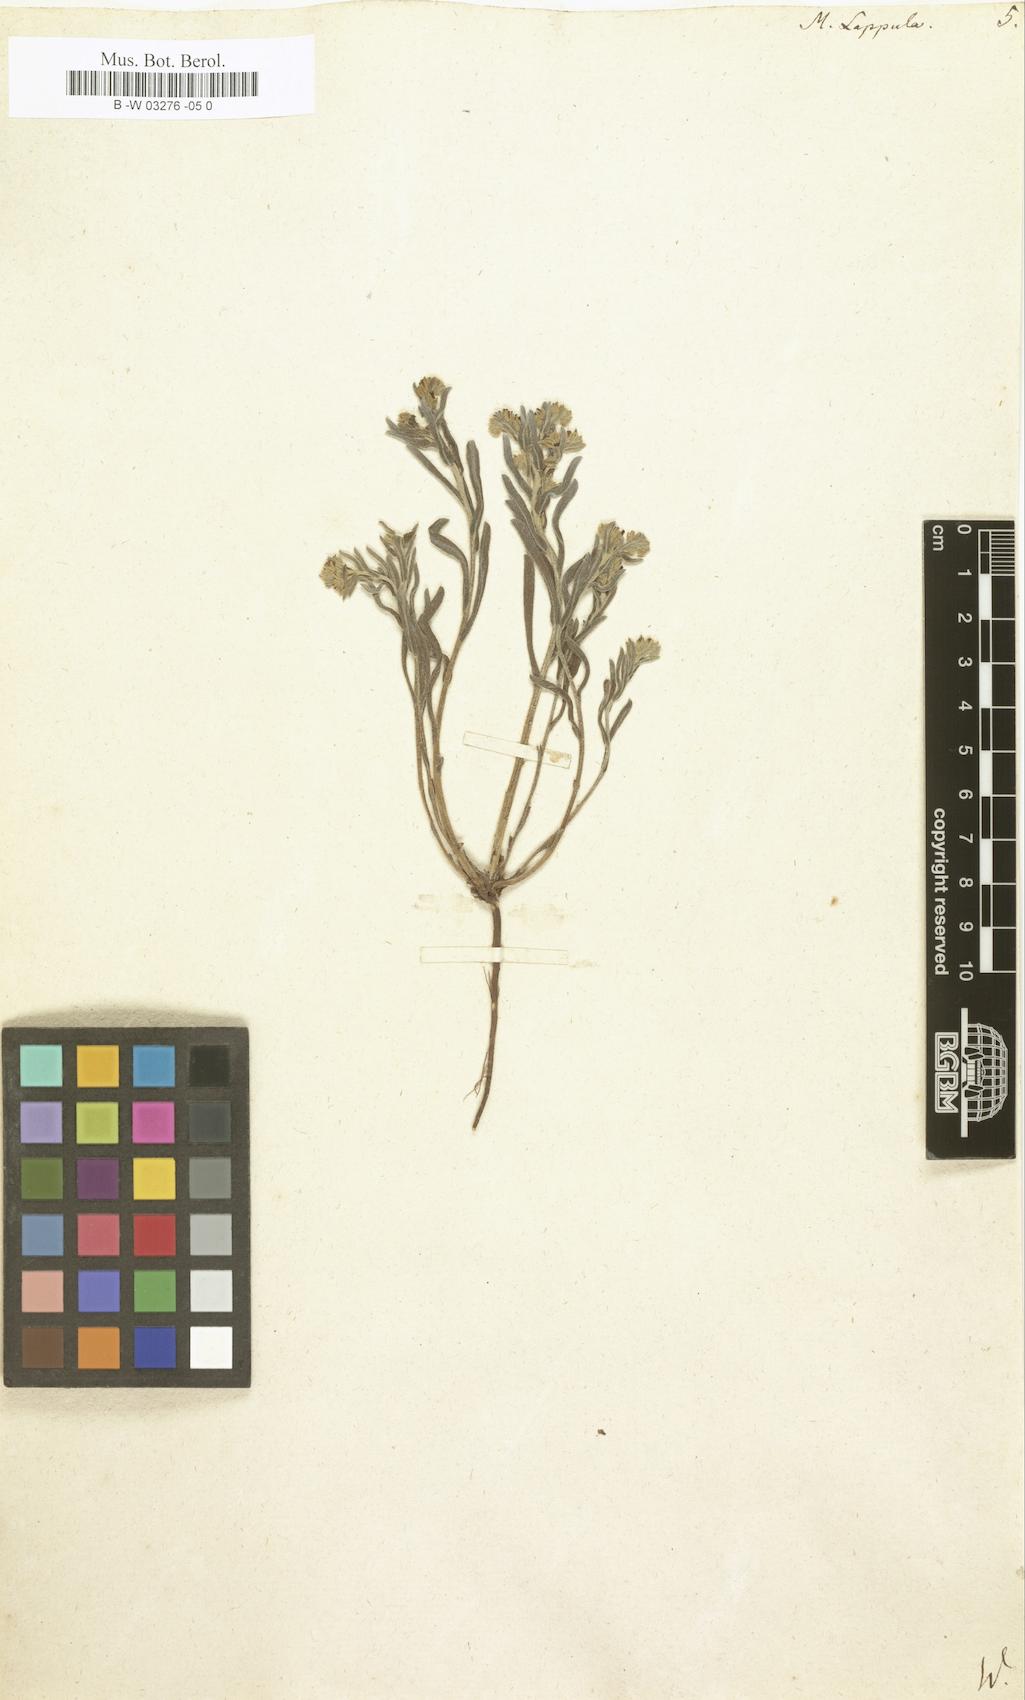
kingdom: Plantae
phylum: Tracheophyta
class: Magnoliopsida
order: Boraginales
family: Boraginaceae
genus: Lappula
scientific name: Lappula squarrosa
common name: European stickseed
